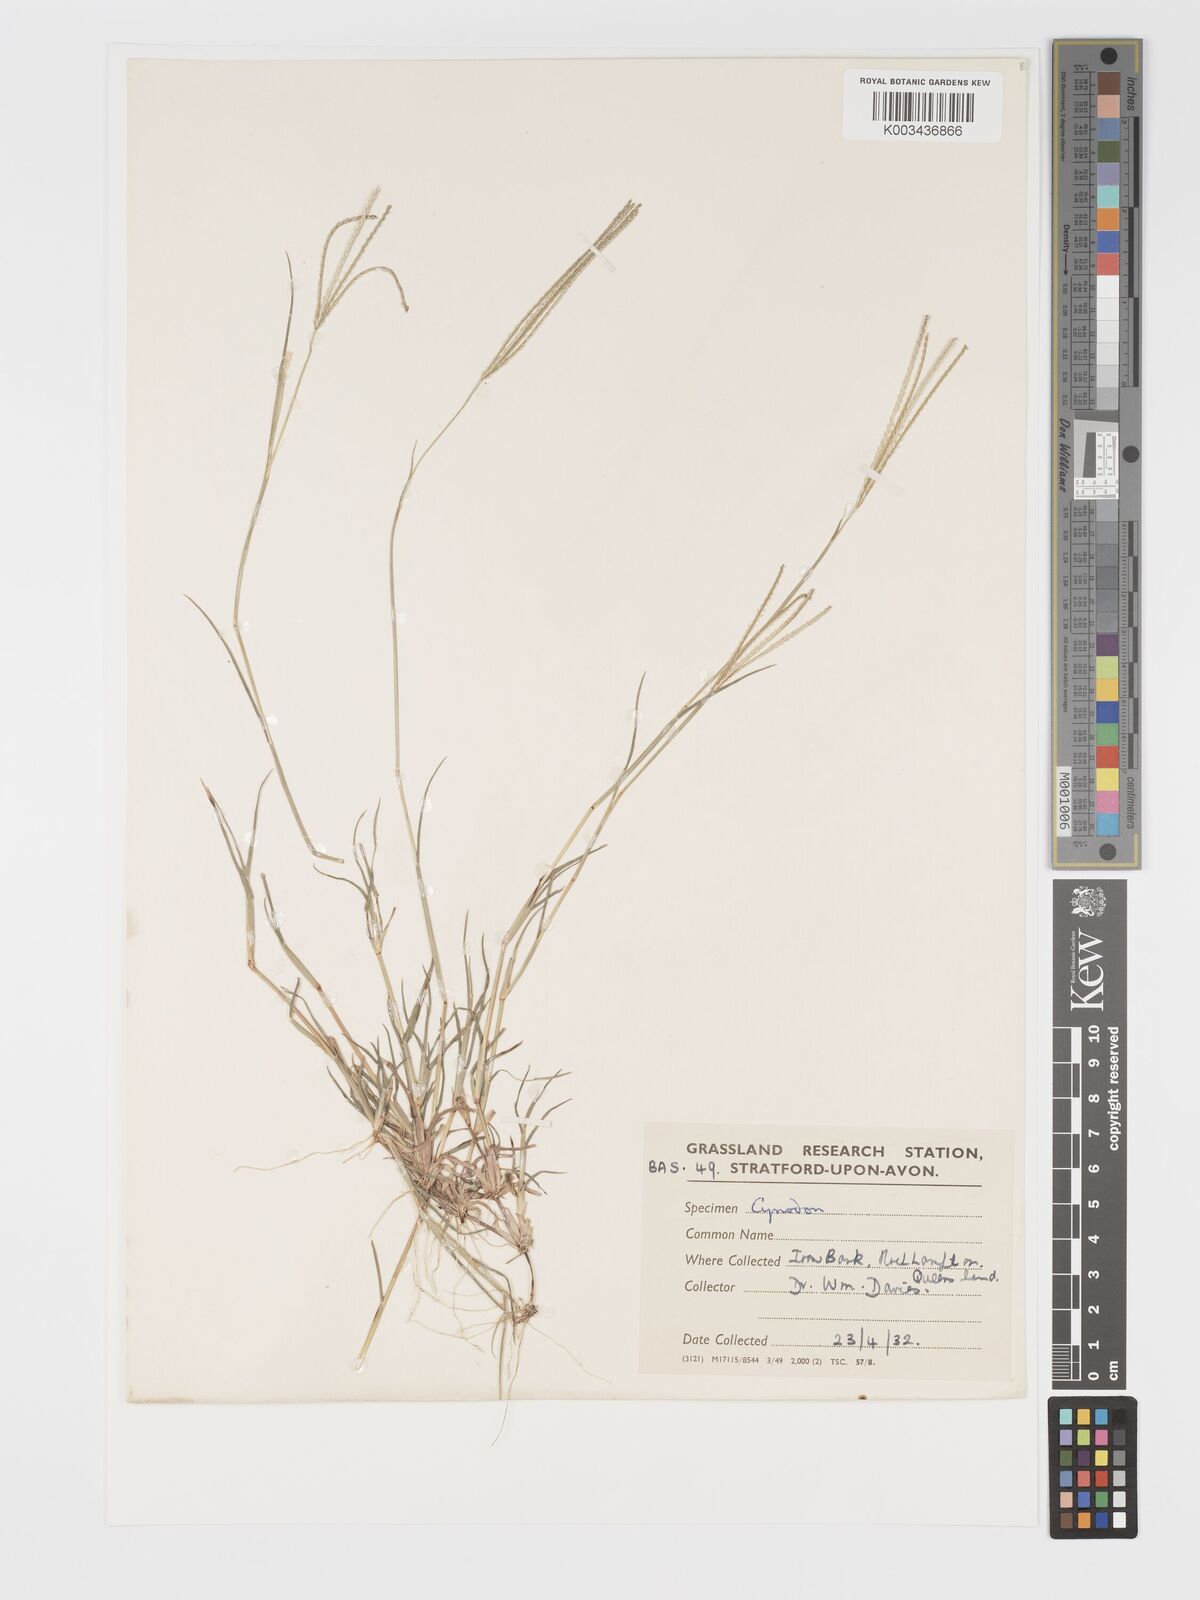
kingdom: Plantae
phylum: Tracheophyta
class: Liliopsida
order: Poales
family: Poaceae
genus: Cynodon
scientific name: Cynodon tenellus
